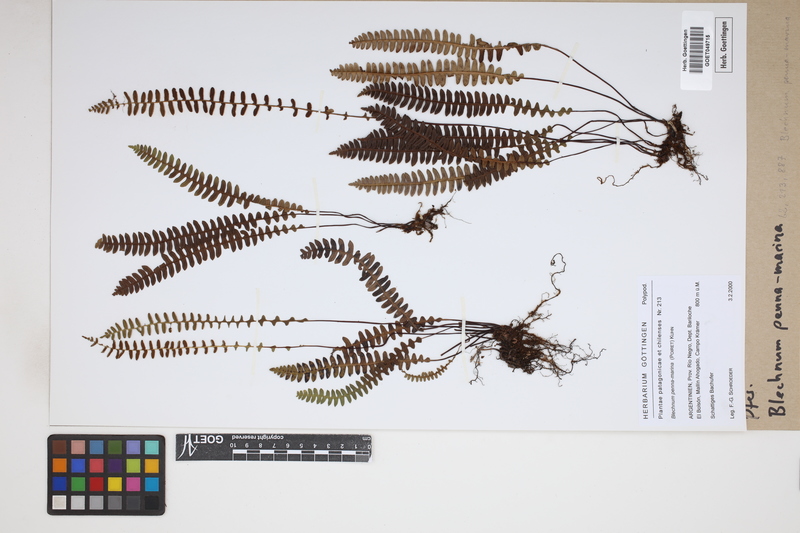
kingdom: Plantae
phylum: Tracheophyta
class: Polypodiopsida
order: Polypodiales
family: Blechnaceae
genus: Austroblechnum
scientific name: Austroblechnum penna-marina
